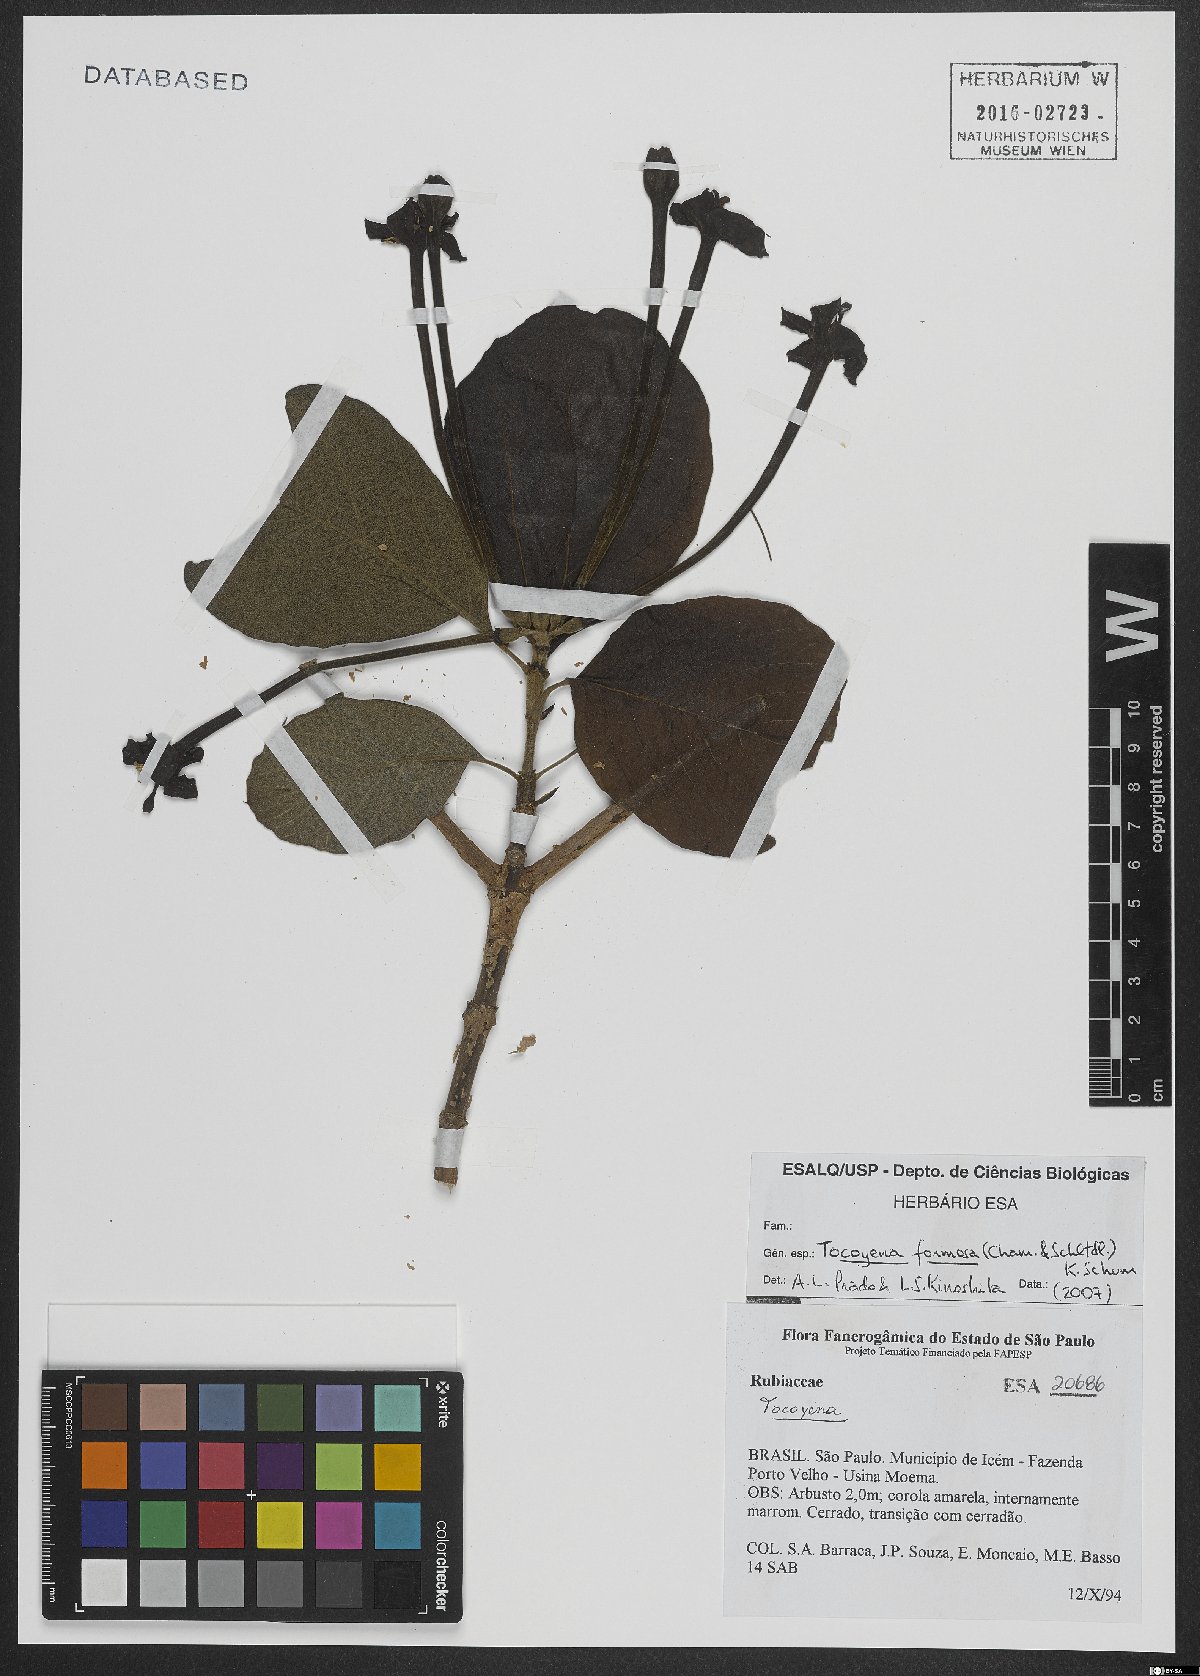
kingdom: Plantae
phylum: Tracheophyta
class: Magnoliopsida
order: Gentianales
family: Rubiaceae
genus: Tocoyena
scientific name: Tocoyena formosa
